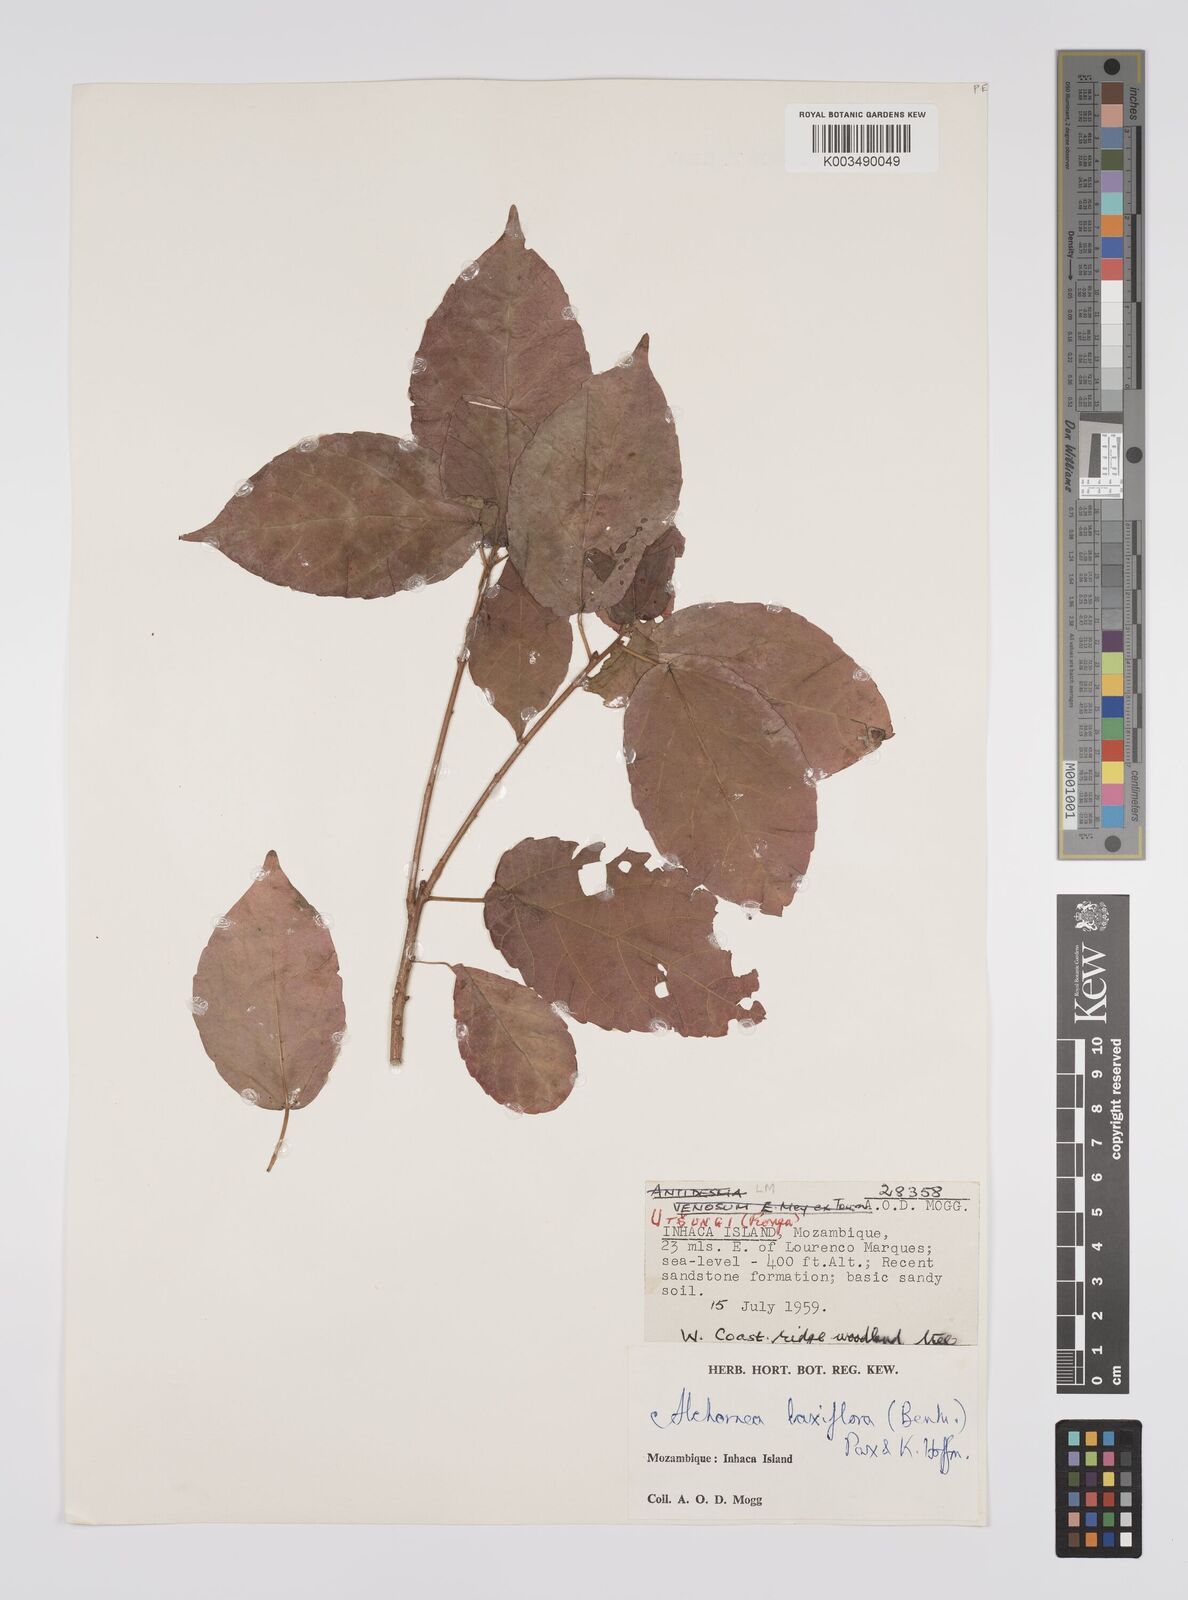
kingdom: Plantae
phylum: Tracheophyta
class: Magnoliopsida
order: Malpighiales
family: Euphorbiaceae
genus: Alchornea
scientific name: Alchornea laxiflora
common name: Lowveld bead-string
